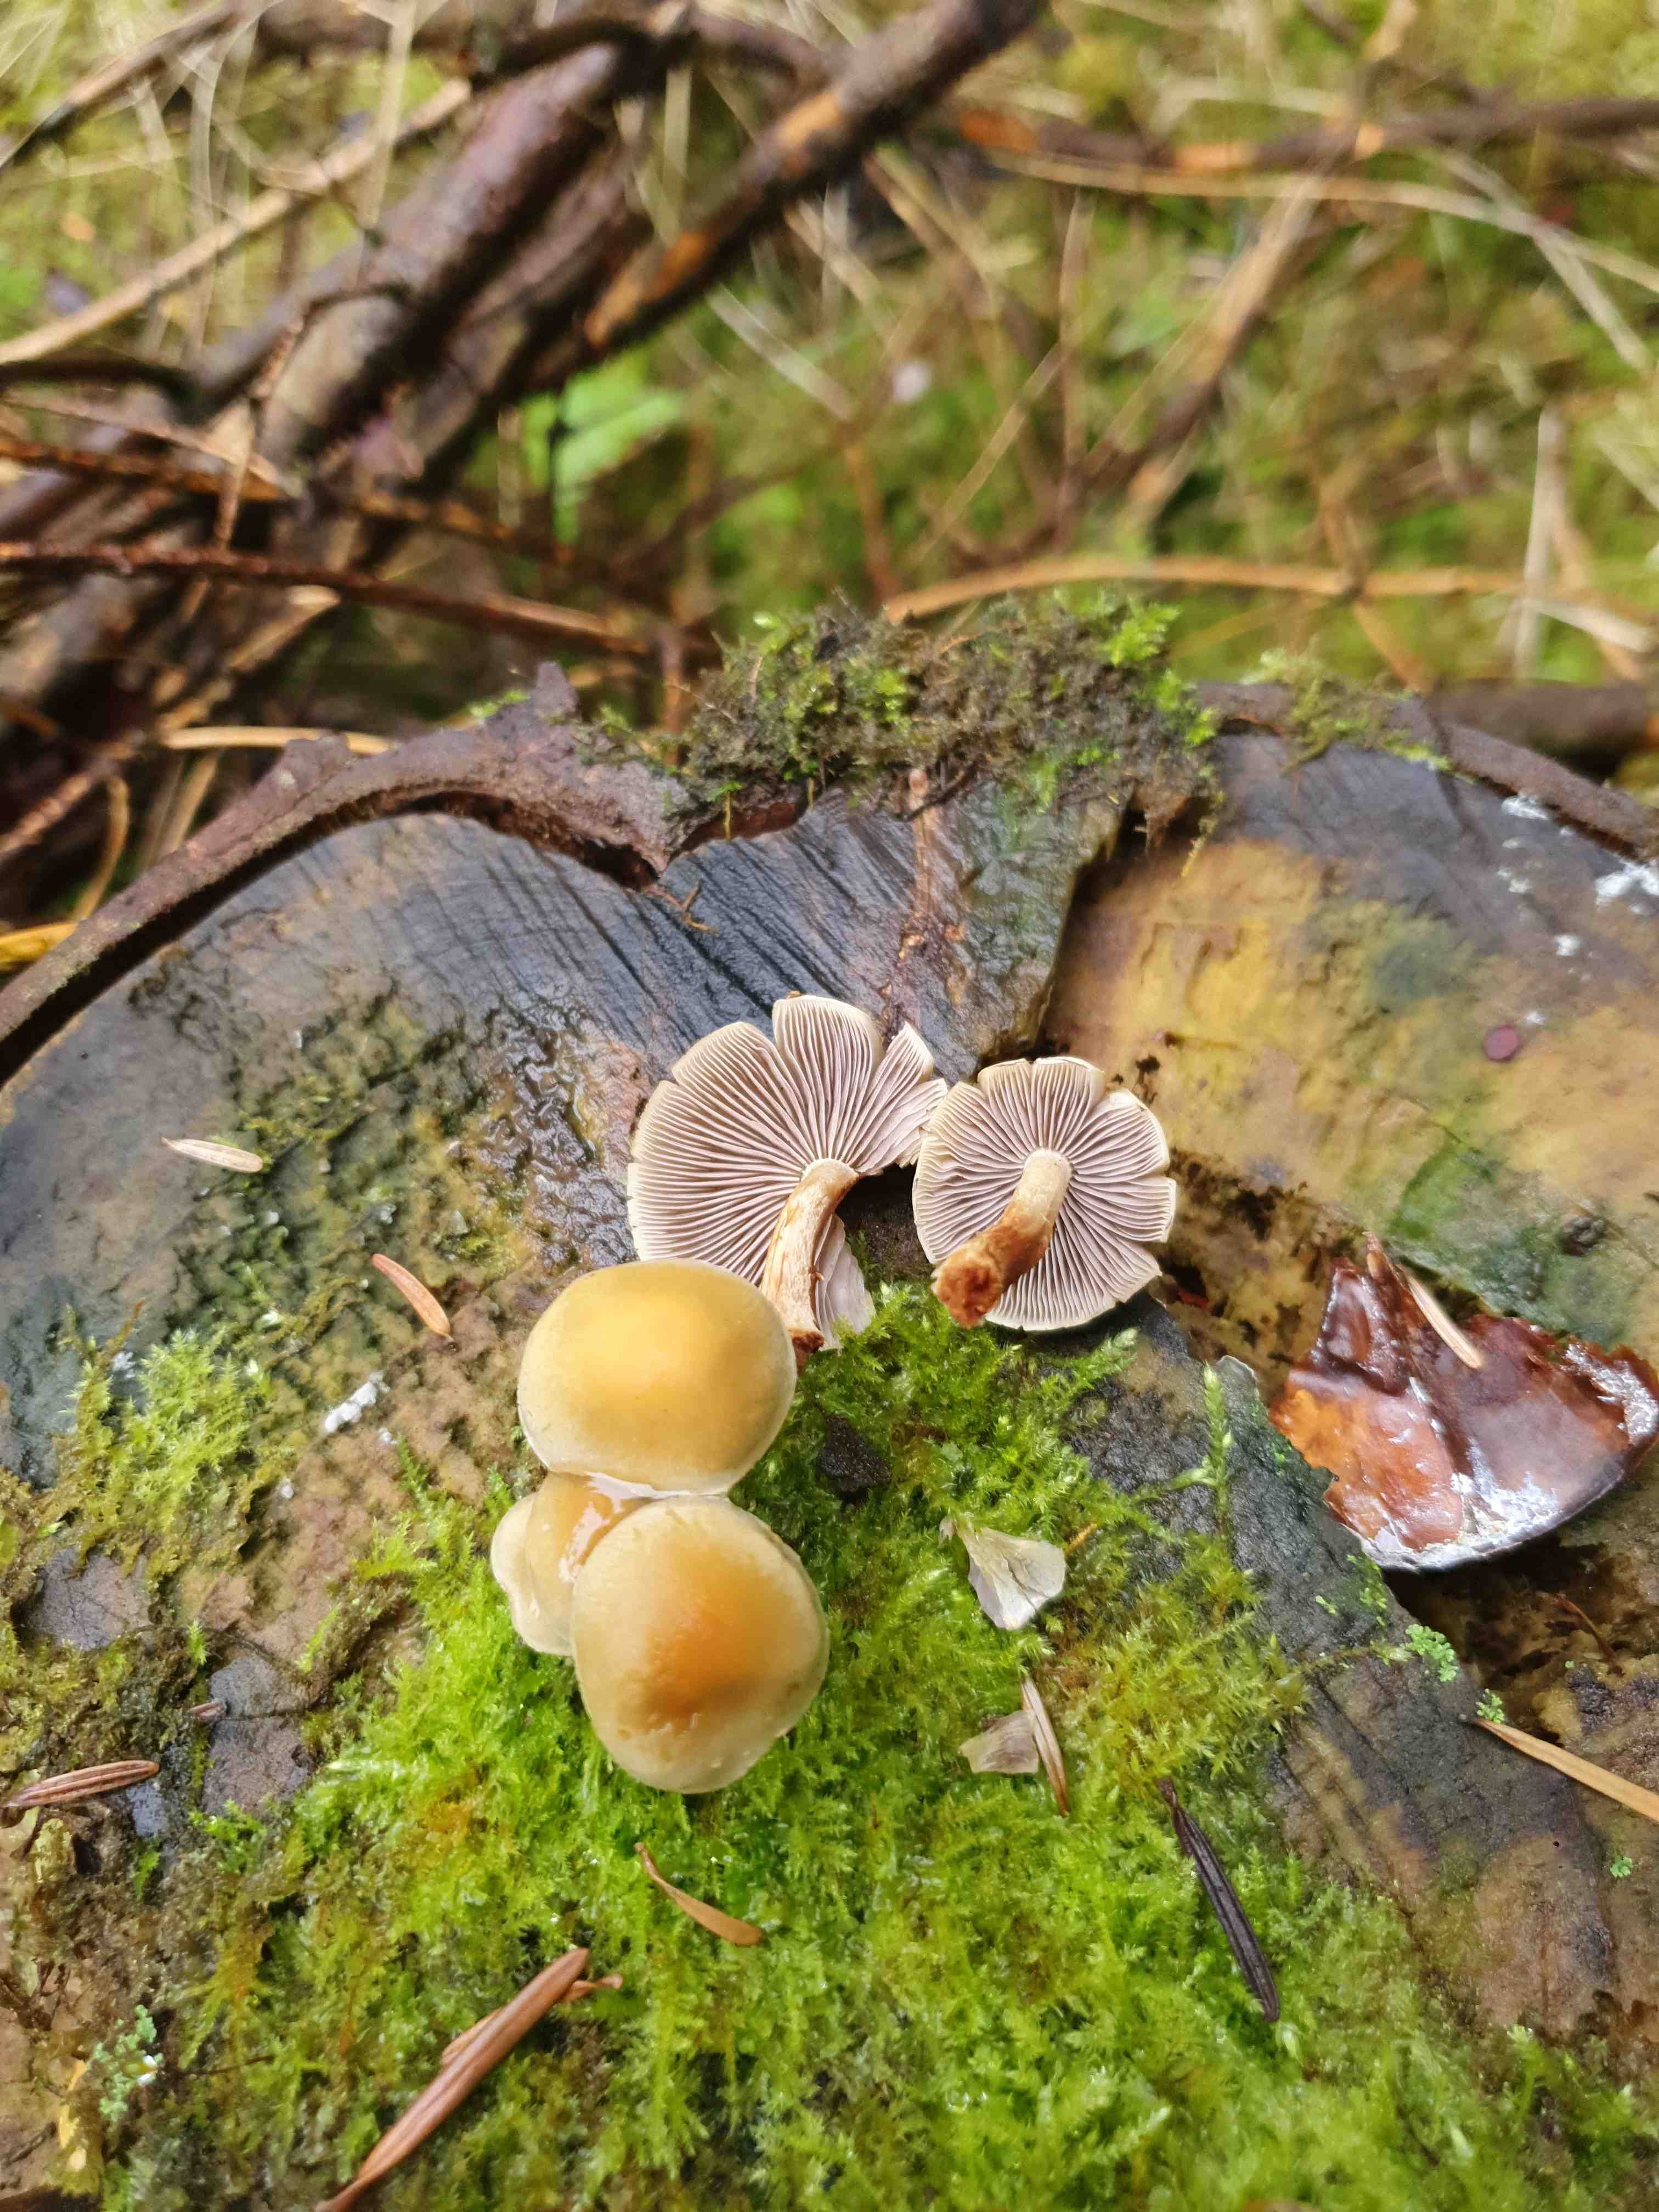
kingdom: Fungi
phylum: Basidiomycota
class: Agaricomycetes
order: Agaricales
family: Strophariaceae
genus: Hypholoma
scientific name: Hypholoma capnoides
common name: gran-svovlhat
